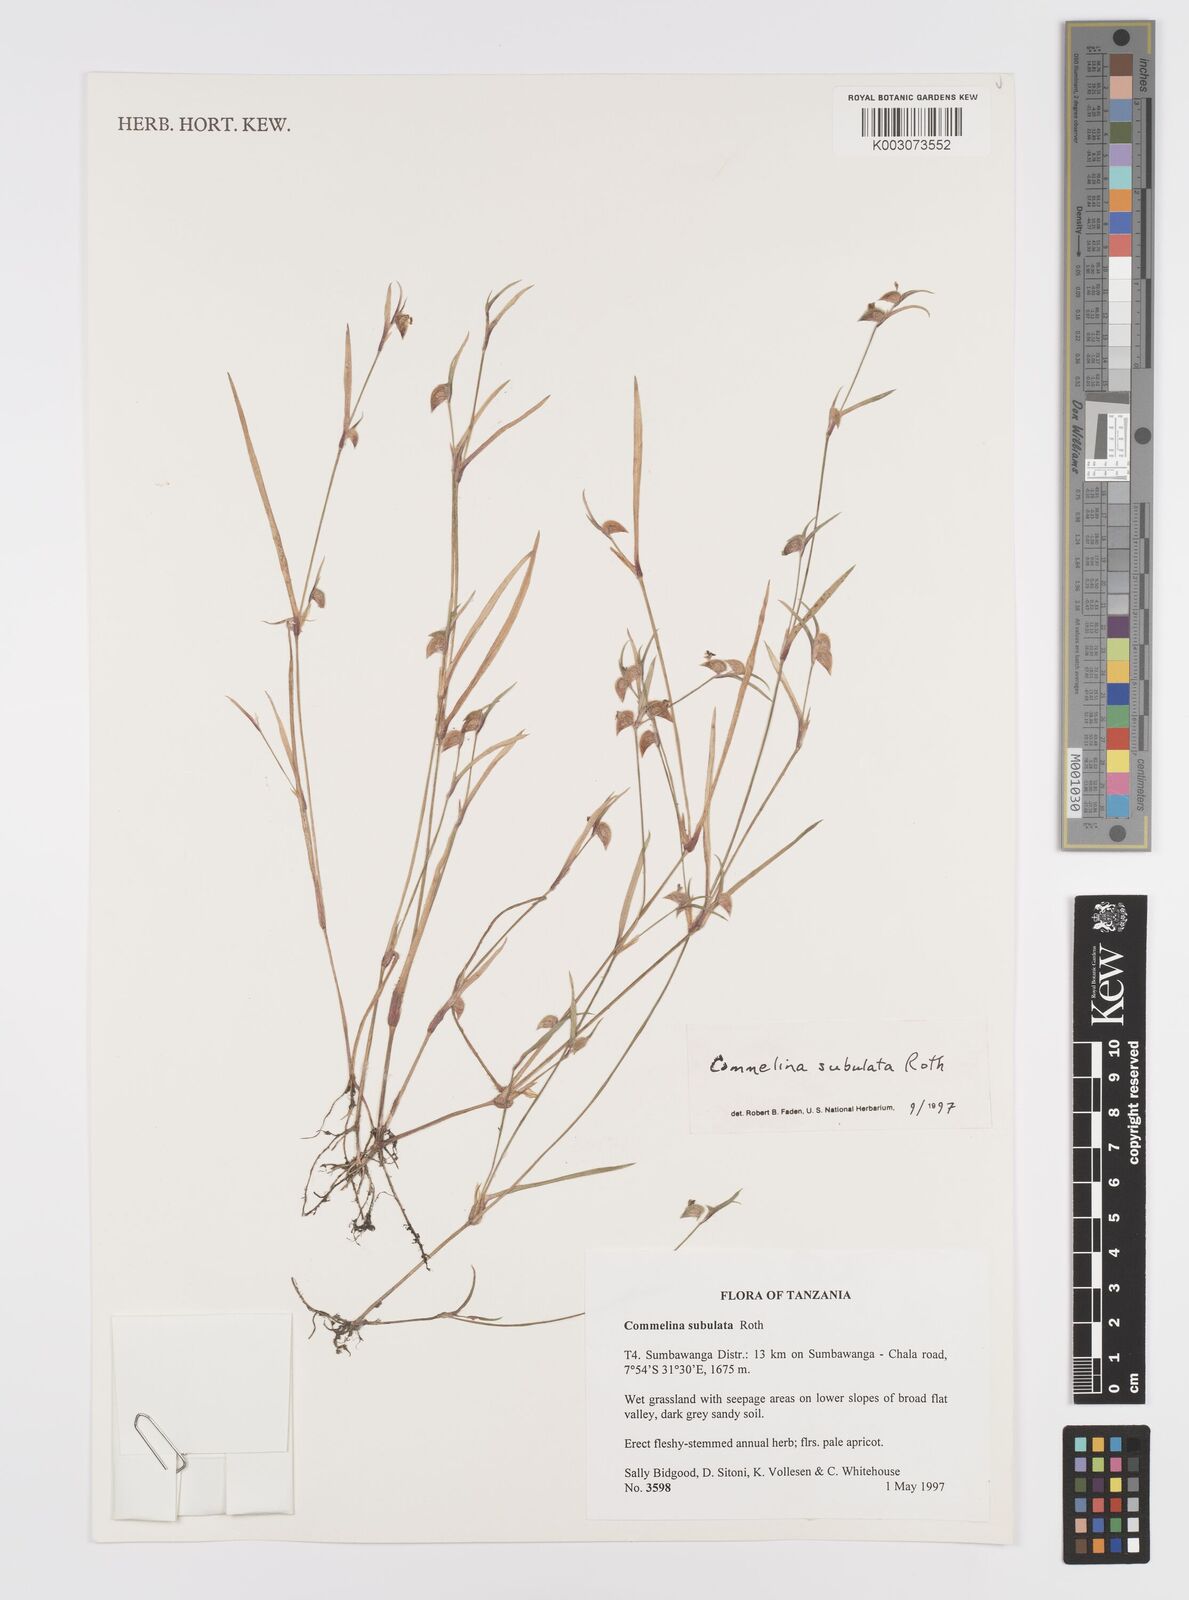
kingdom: Plantae
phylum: Tracheophyta
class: Liliopsida
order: Commelinales
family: Commelinaceae
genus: Commelina
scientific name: Commelina subulata
